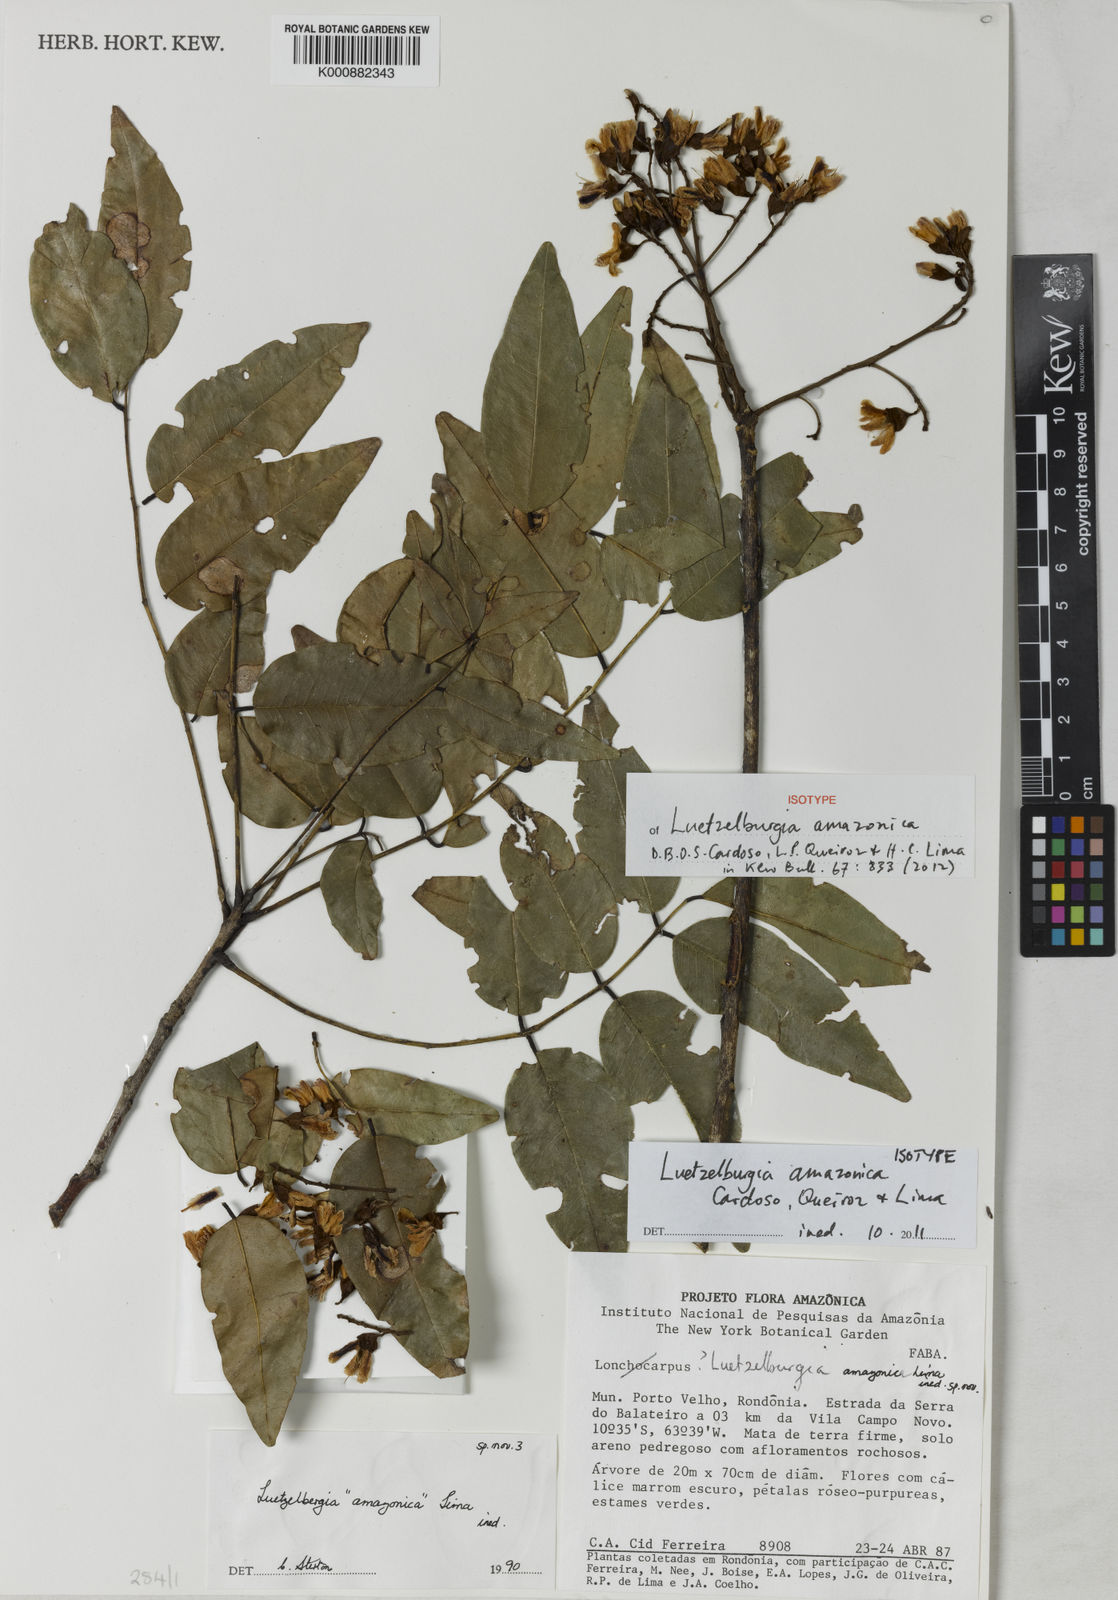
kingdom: Plantae
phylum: Tracheophyta
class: Magnoliopsida
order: Fabales
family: Fabaceae
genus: Luetzelburgia
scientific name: Luetzelburgia
